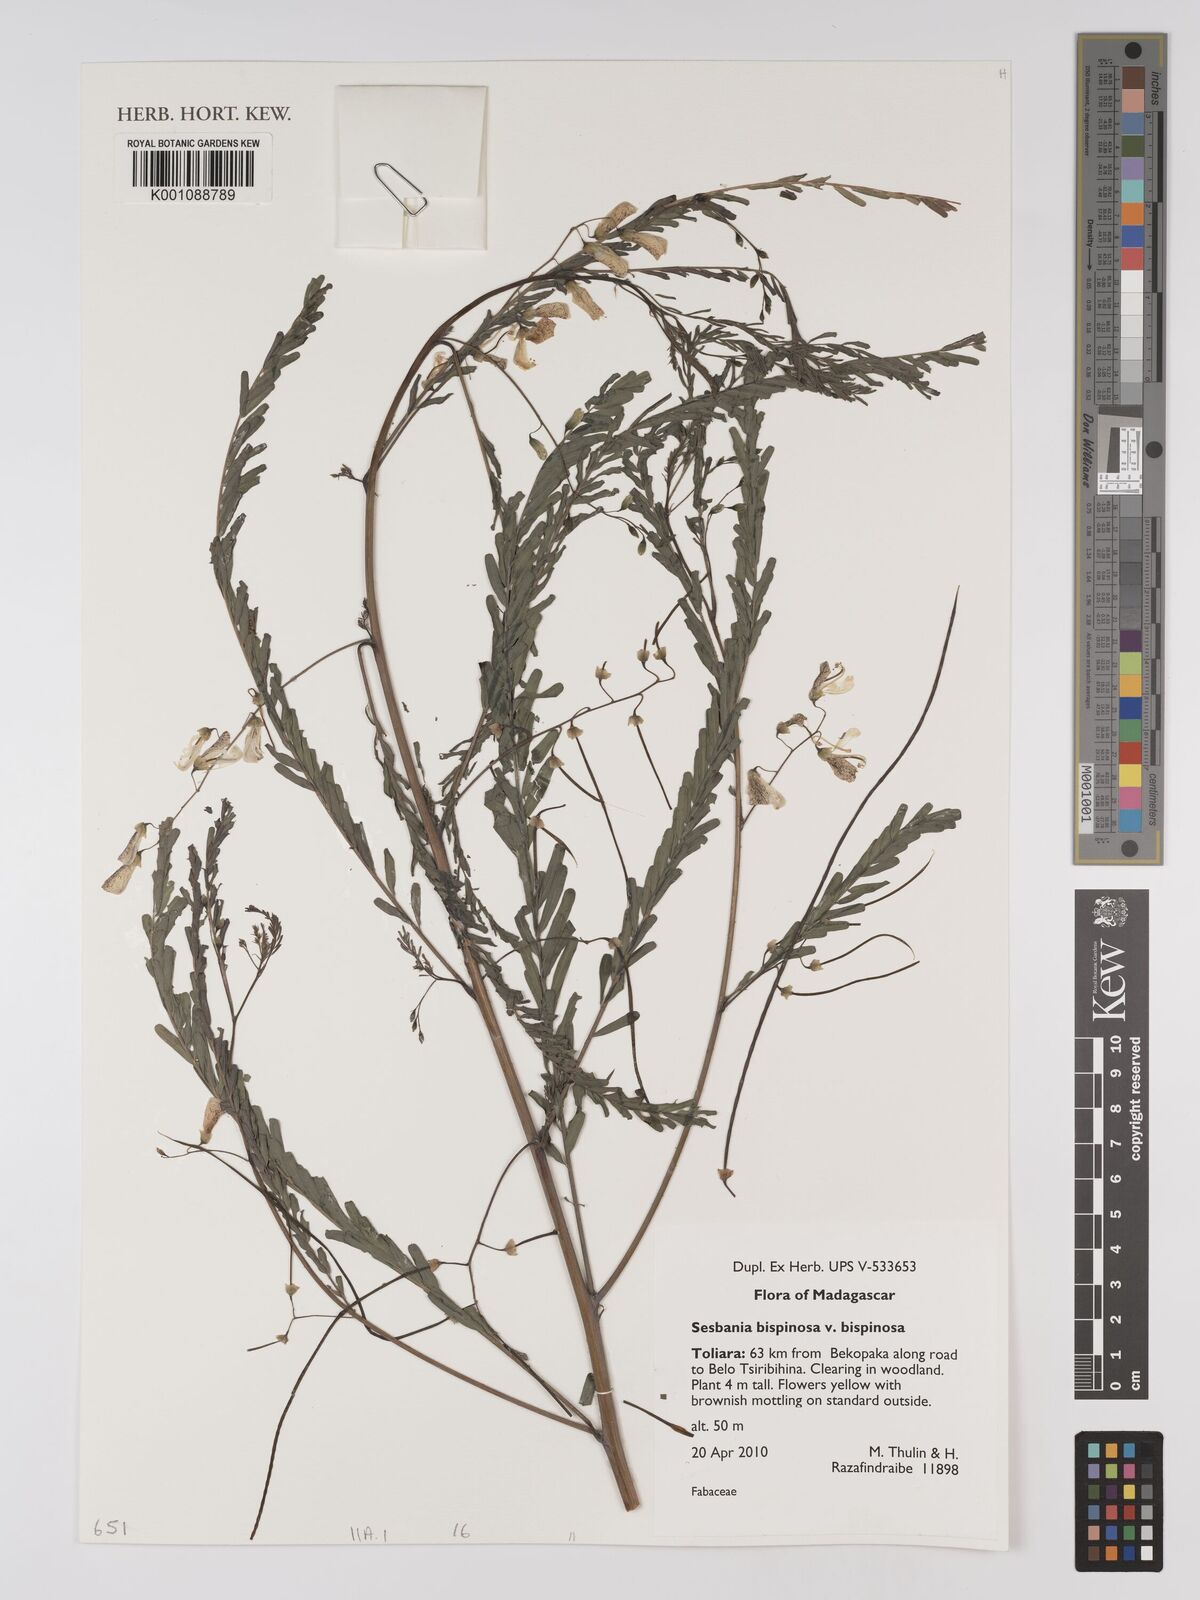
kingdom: Plantae
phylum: Tracheophyta
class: Magnoliopsida
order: Fabales
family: Fabaceae
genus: Sesbania
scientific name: Sesbania bispinosa
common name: Sesbania pea
